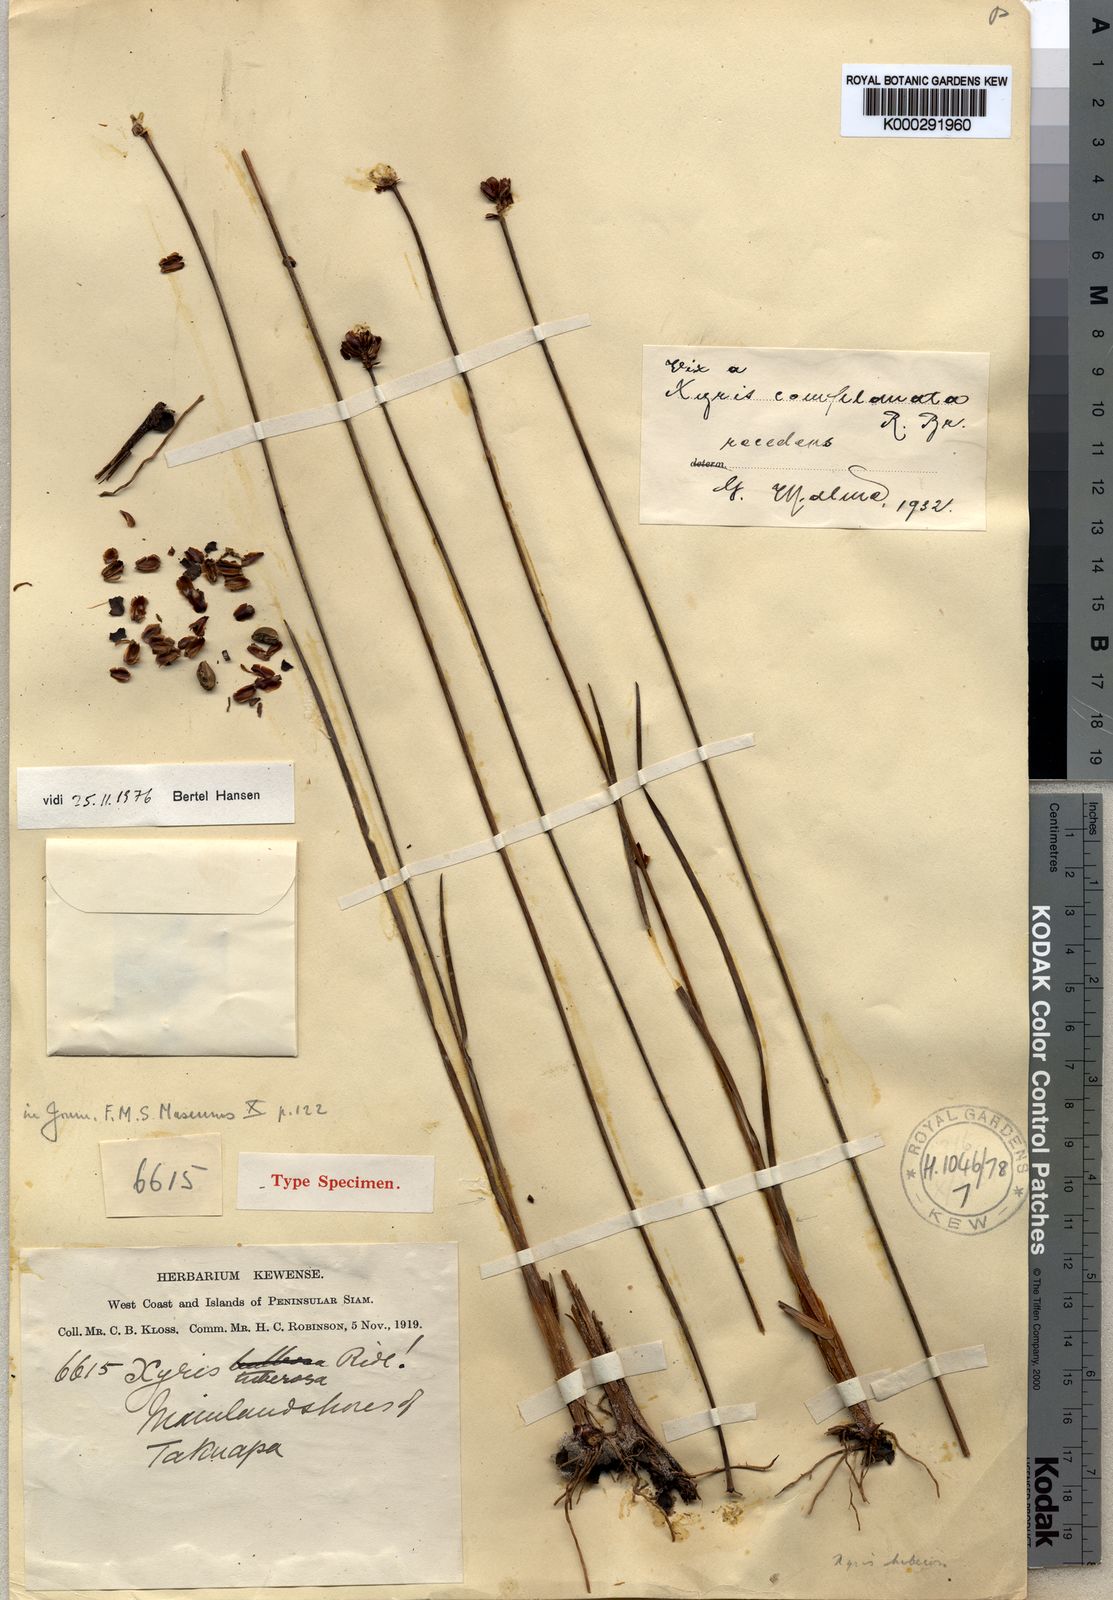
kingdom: Plantae
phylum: Tracheophyta
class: Liliopsida
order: Poales
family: Xyridaceae
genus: Xyris
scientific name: Xyris tuberosa
